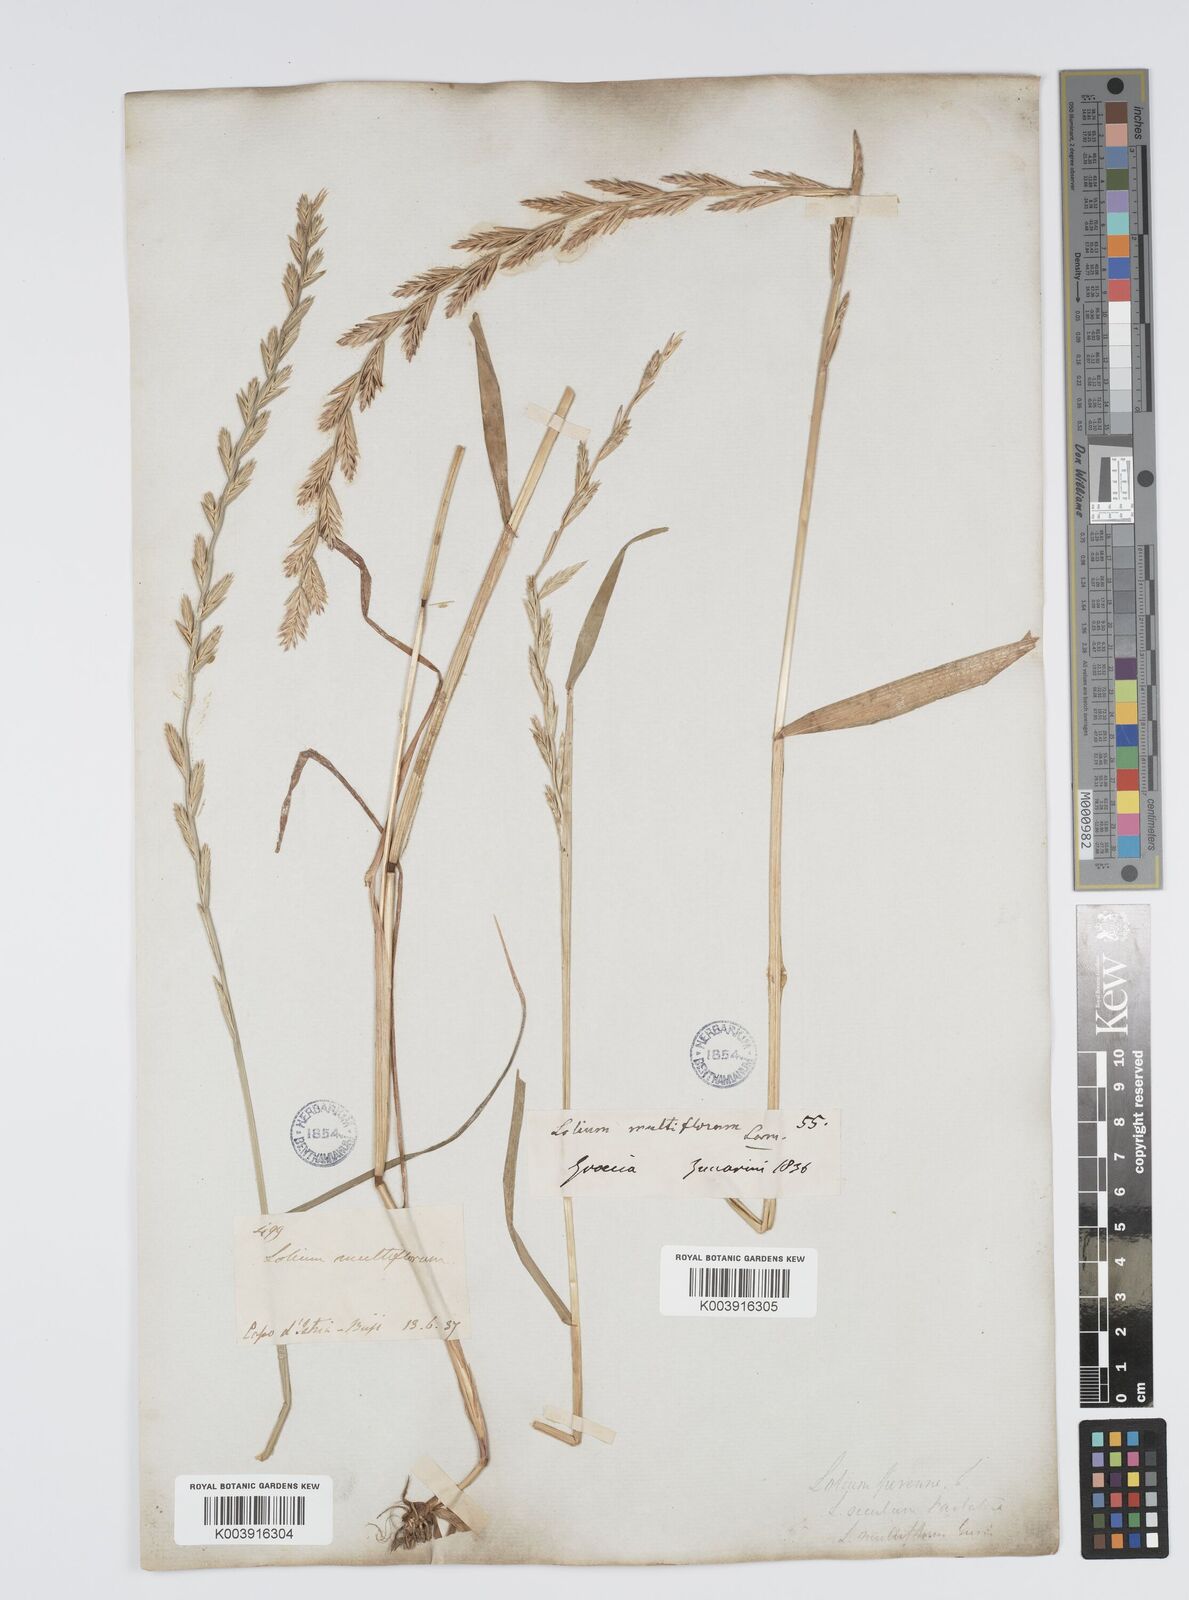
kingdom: Plantae
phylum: Tracheophyta
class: Liliopsida
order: Poales
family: Poaceae
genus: Lolium
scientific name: Lolium rigidum
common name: Wimmera ryegrass
